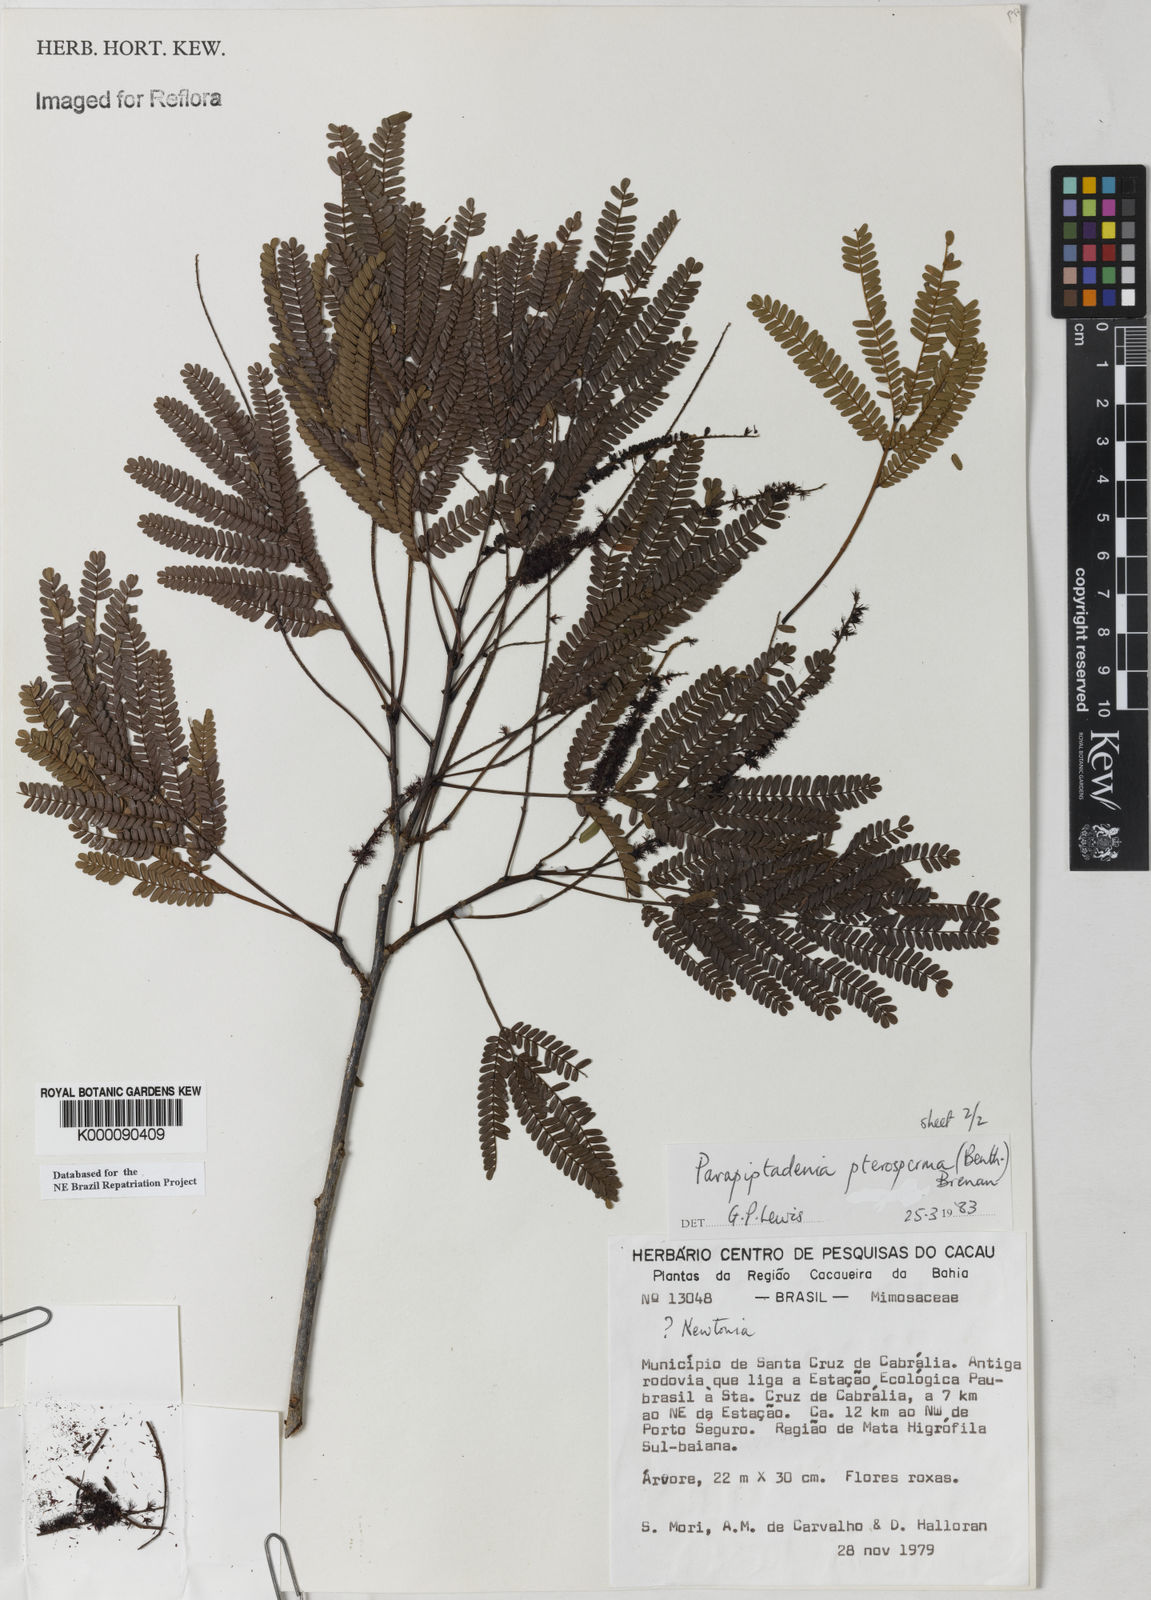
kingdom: Plantae
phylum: Tracheophyta
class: Magnoliopsida
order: Fabales
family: Fabaceae
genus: Parapiptadenia
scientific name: Parapiptadenia pterosperma
